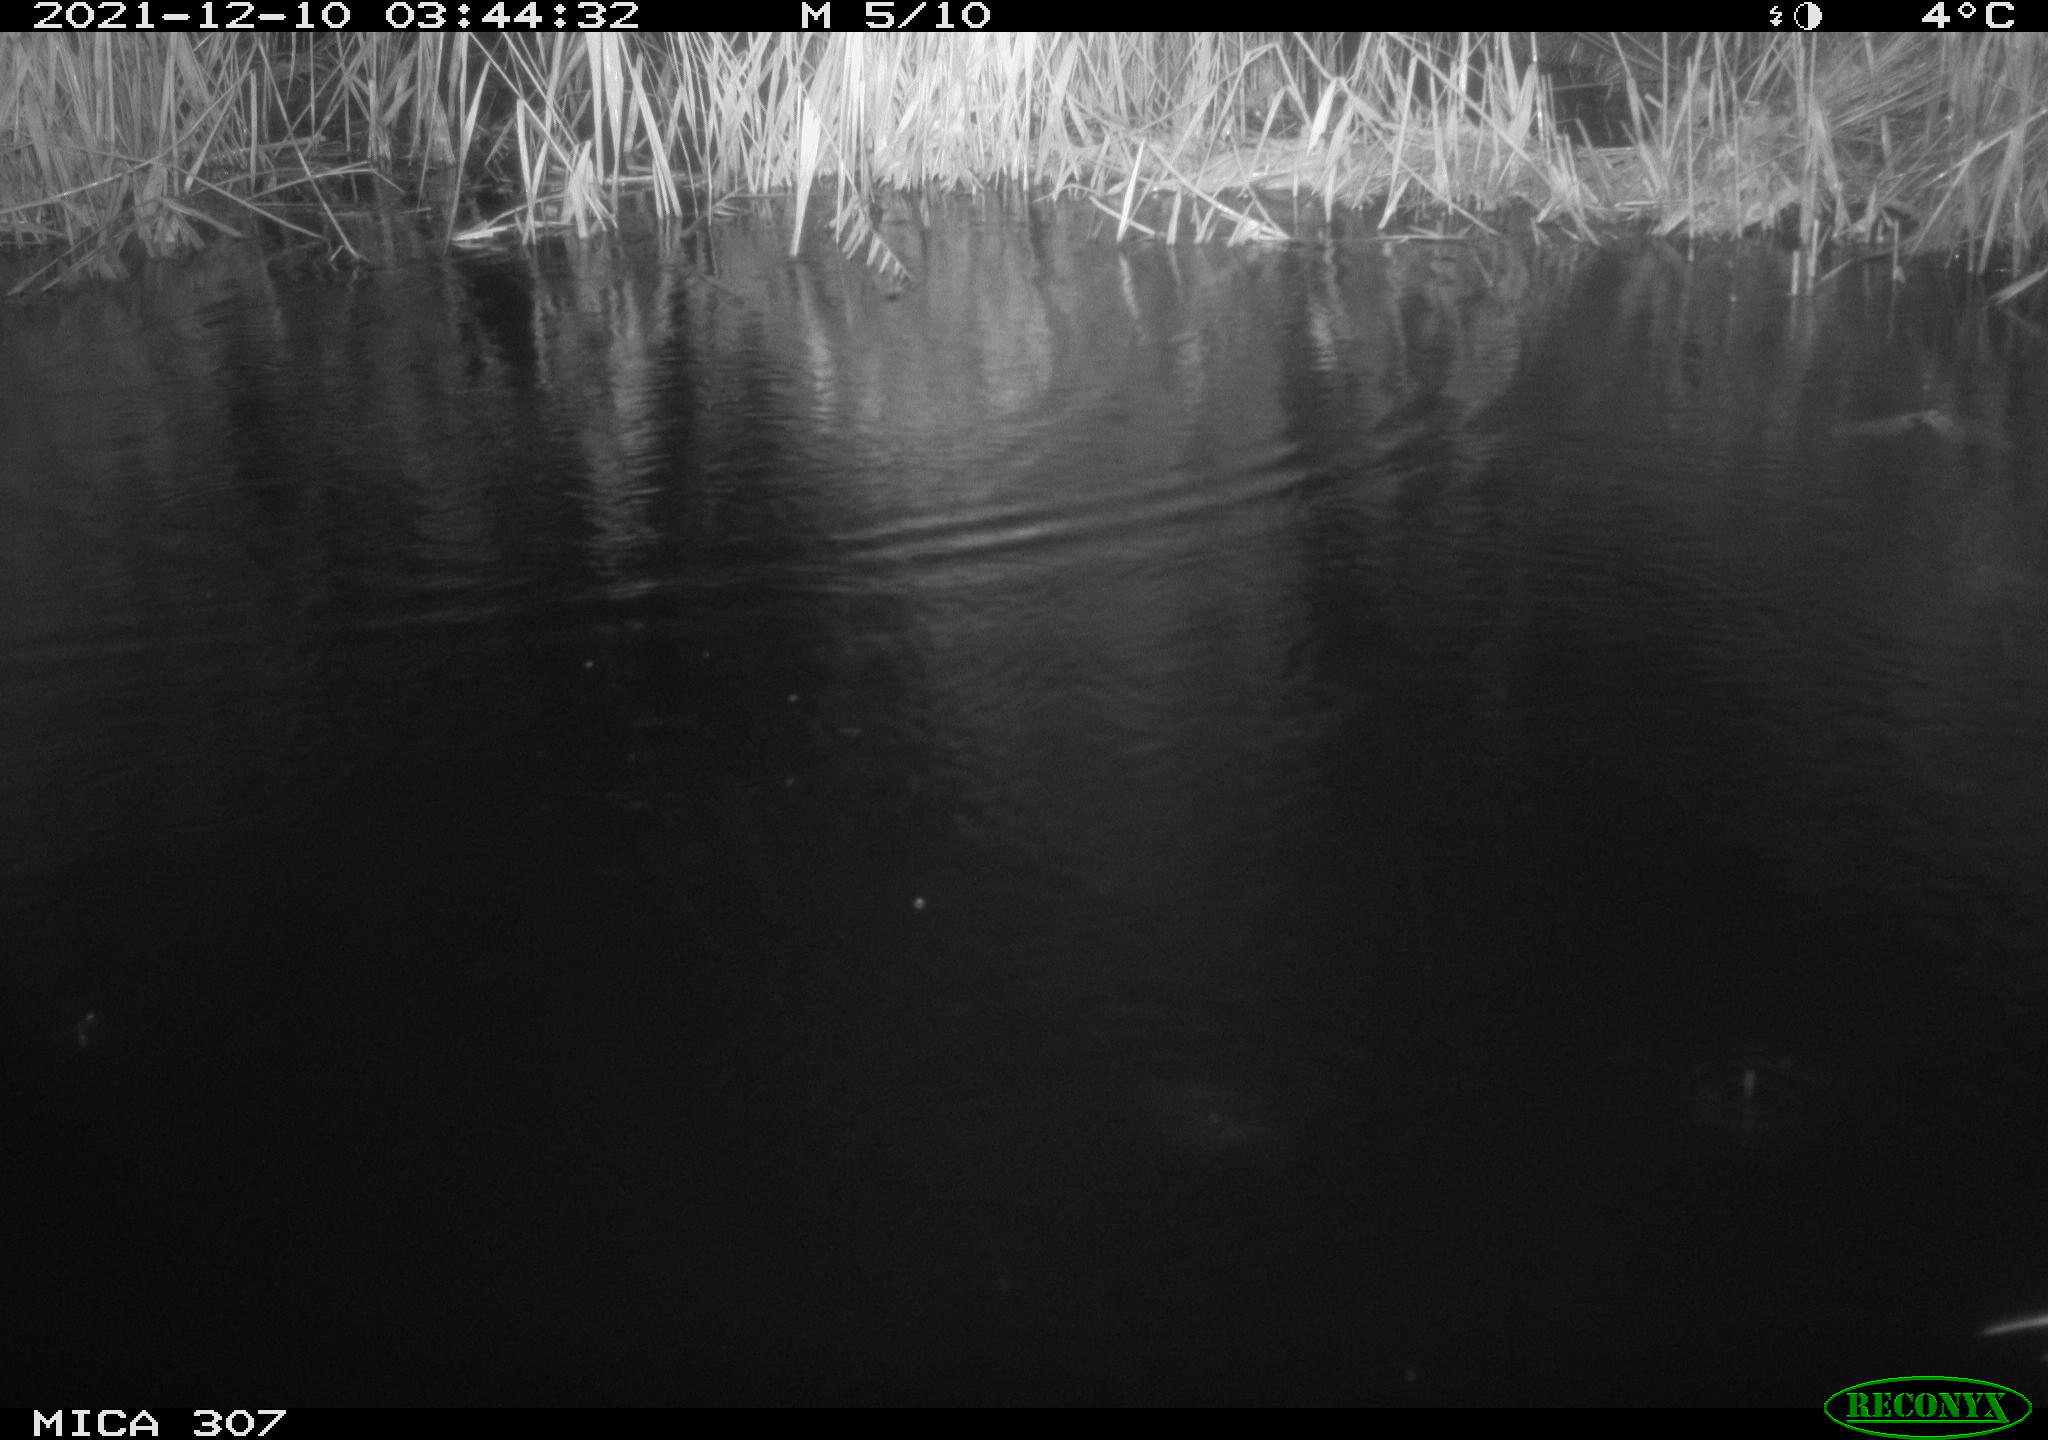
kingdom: Animalia
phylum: Chordata
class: Aves
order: Gruiformes
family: Rallidae
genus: Fulica
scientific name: Fulica atra
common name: Eurasian coot
